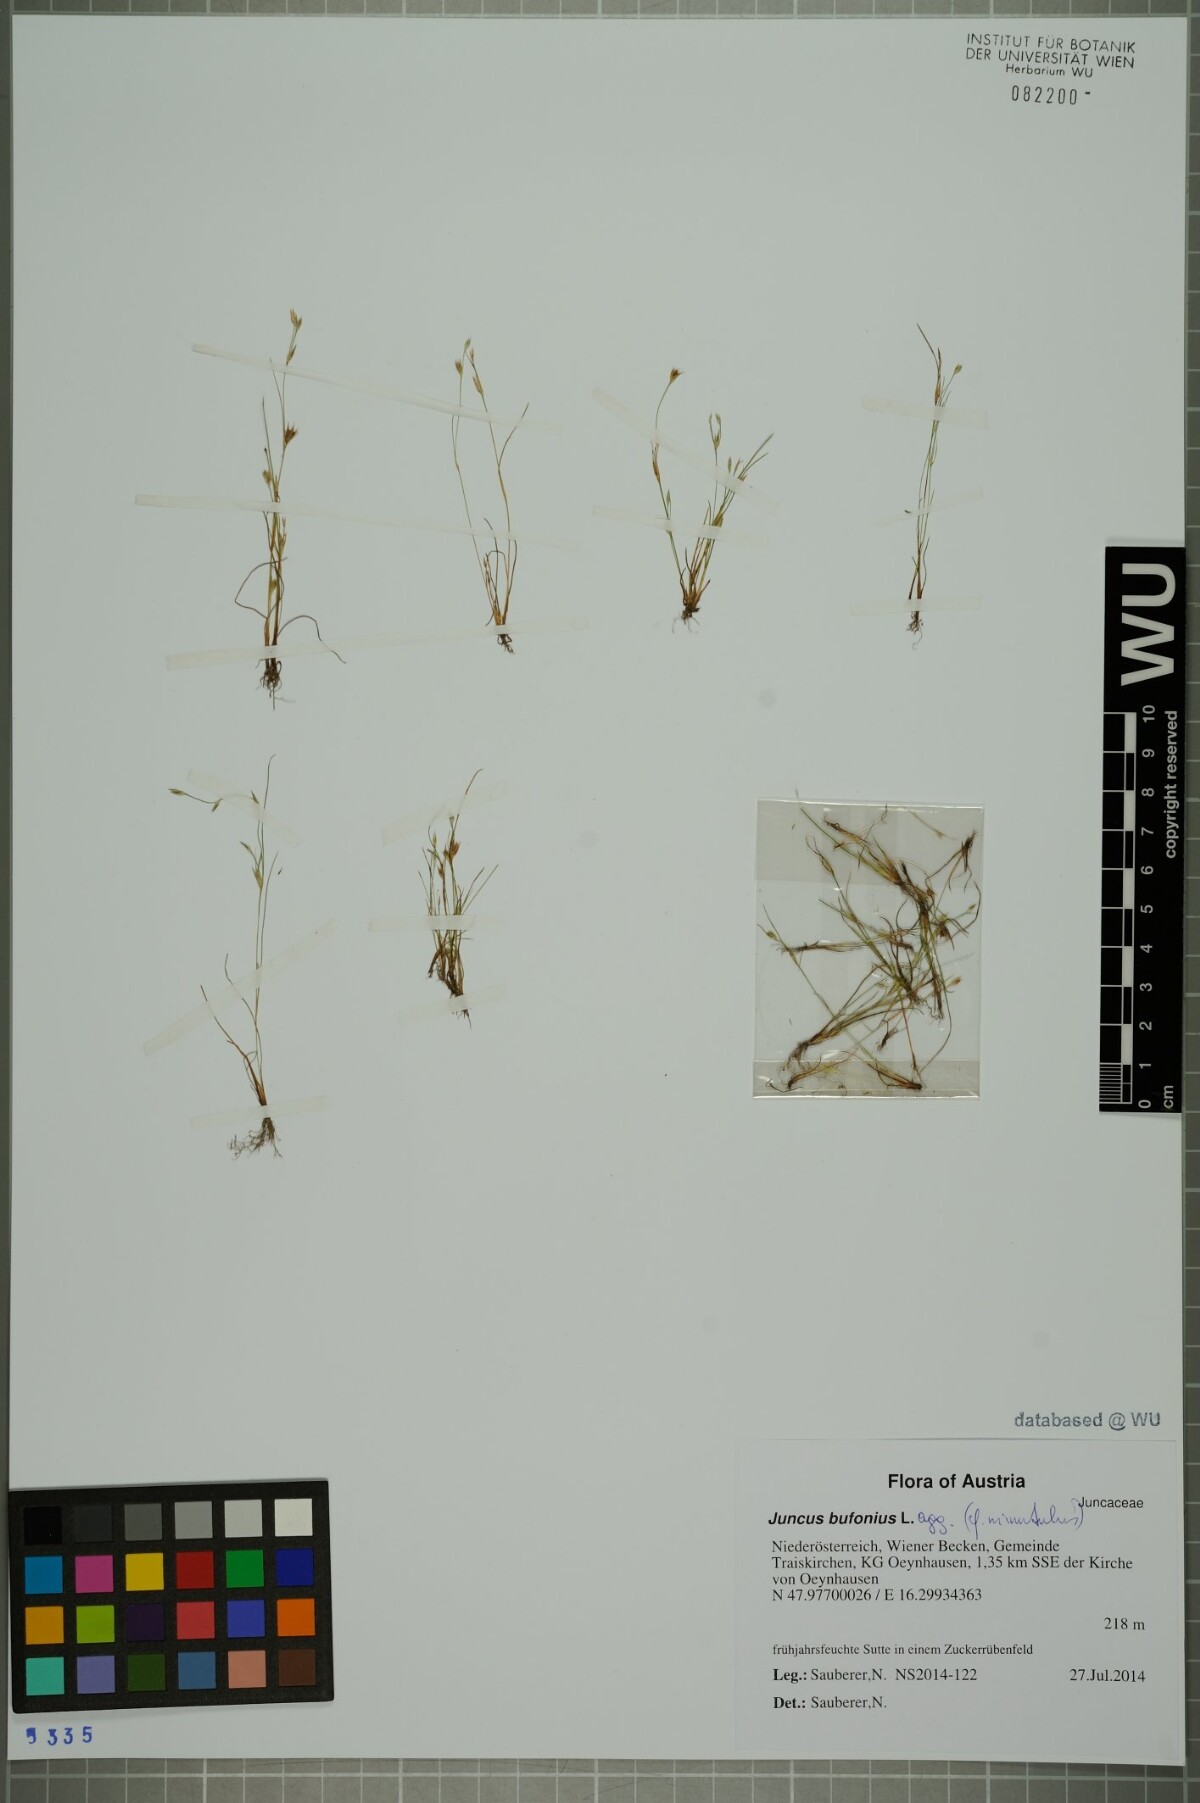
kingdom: Plantae
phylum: Tracheophyta
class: Liliopsida
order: Poales
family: Juncaceae
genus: Juncus
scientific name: Juncus bufonius
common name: Toad rush
